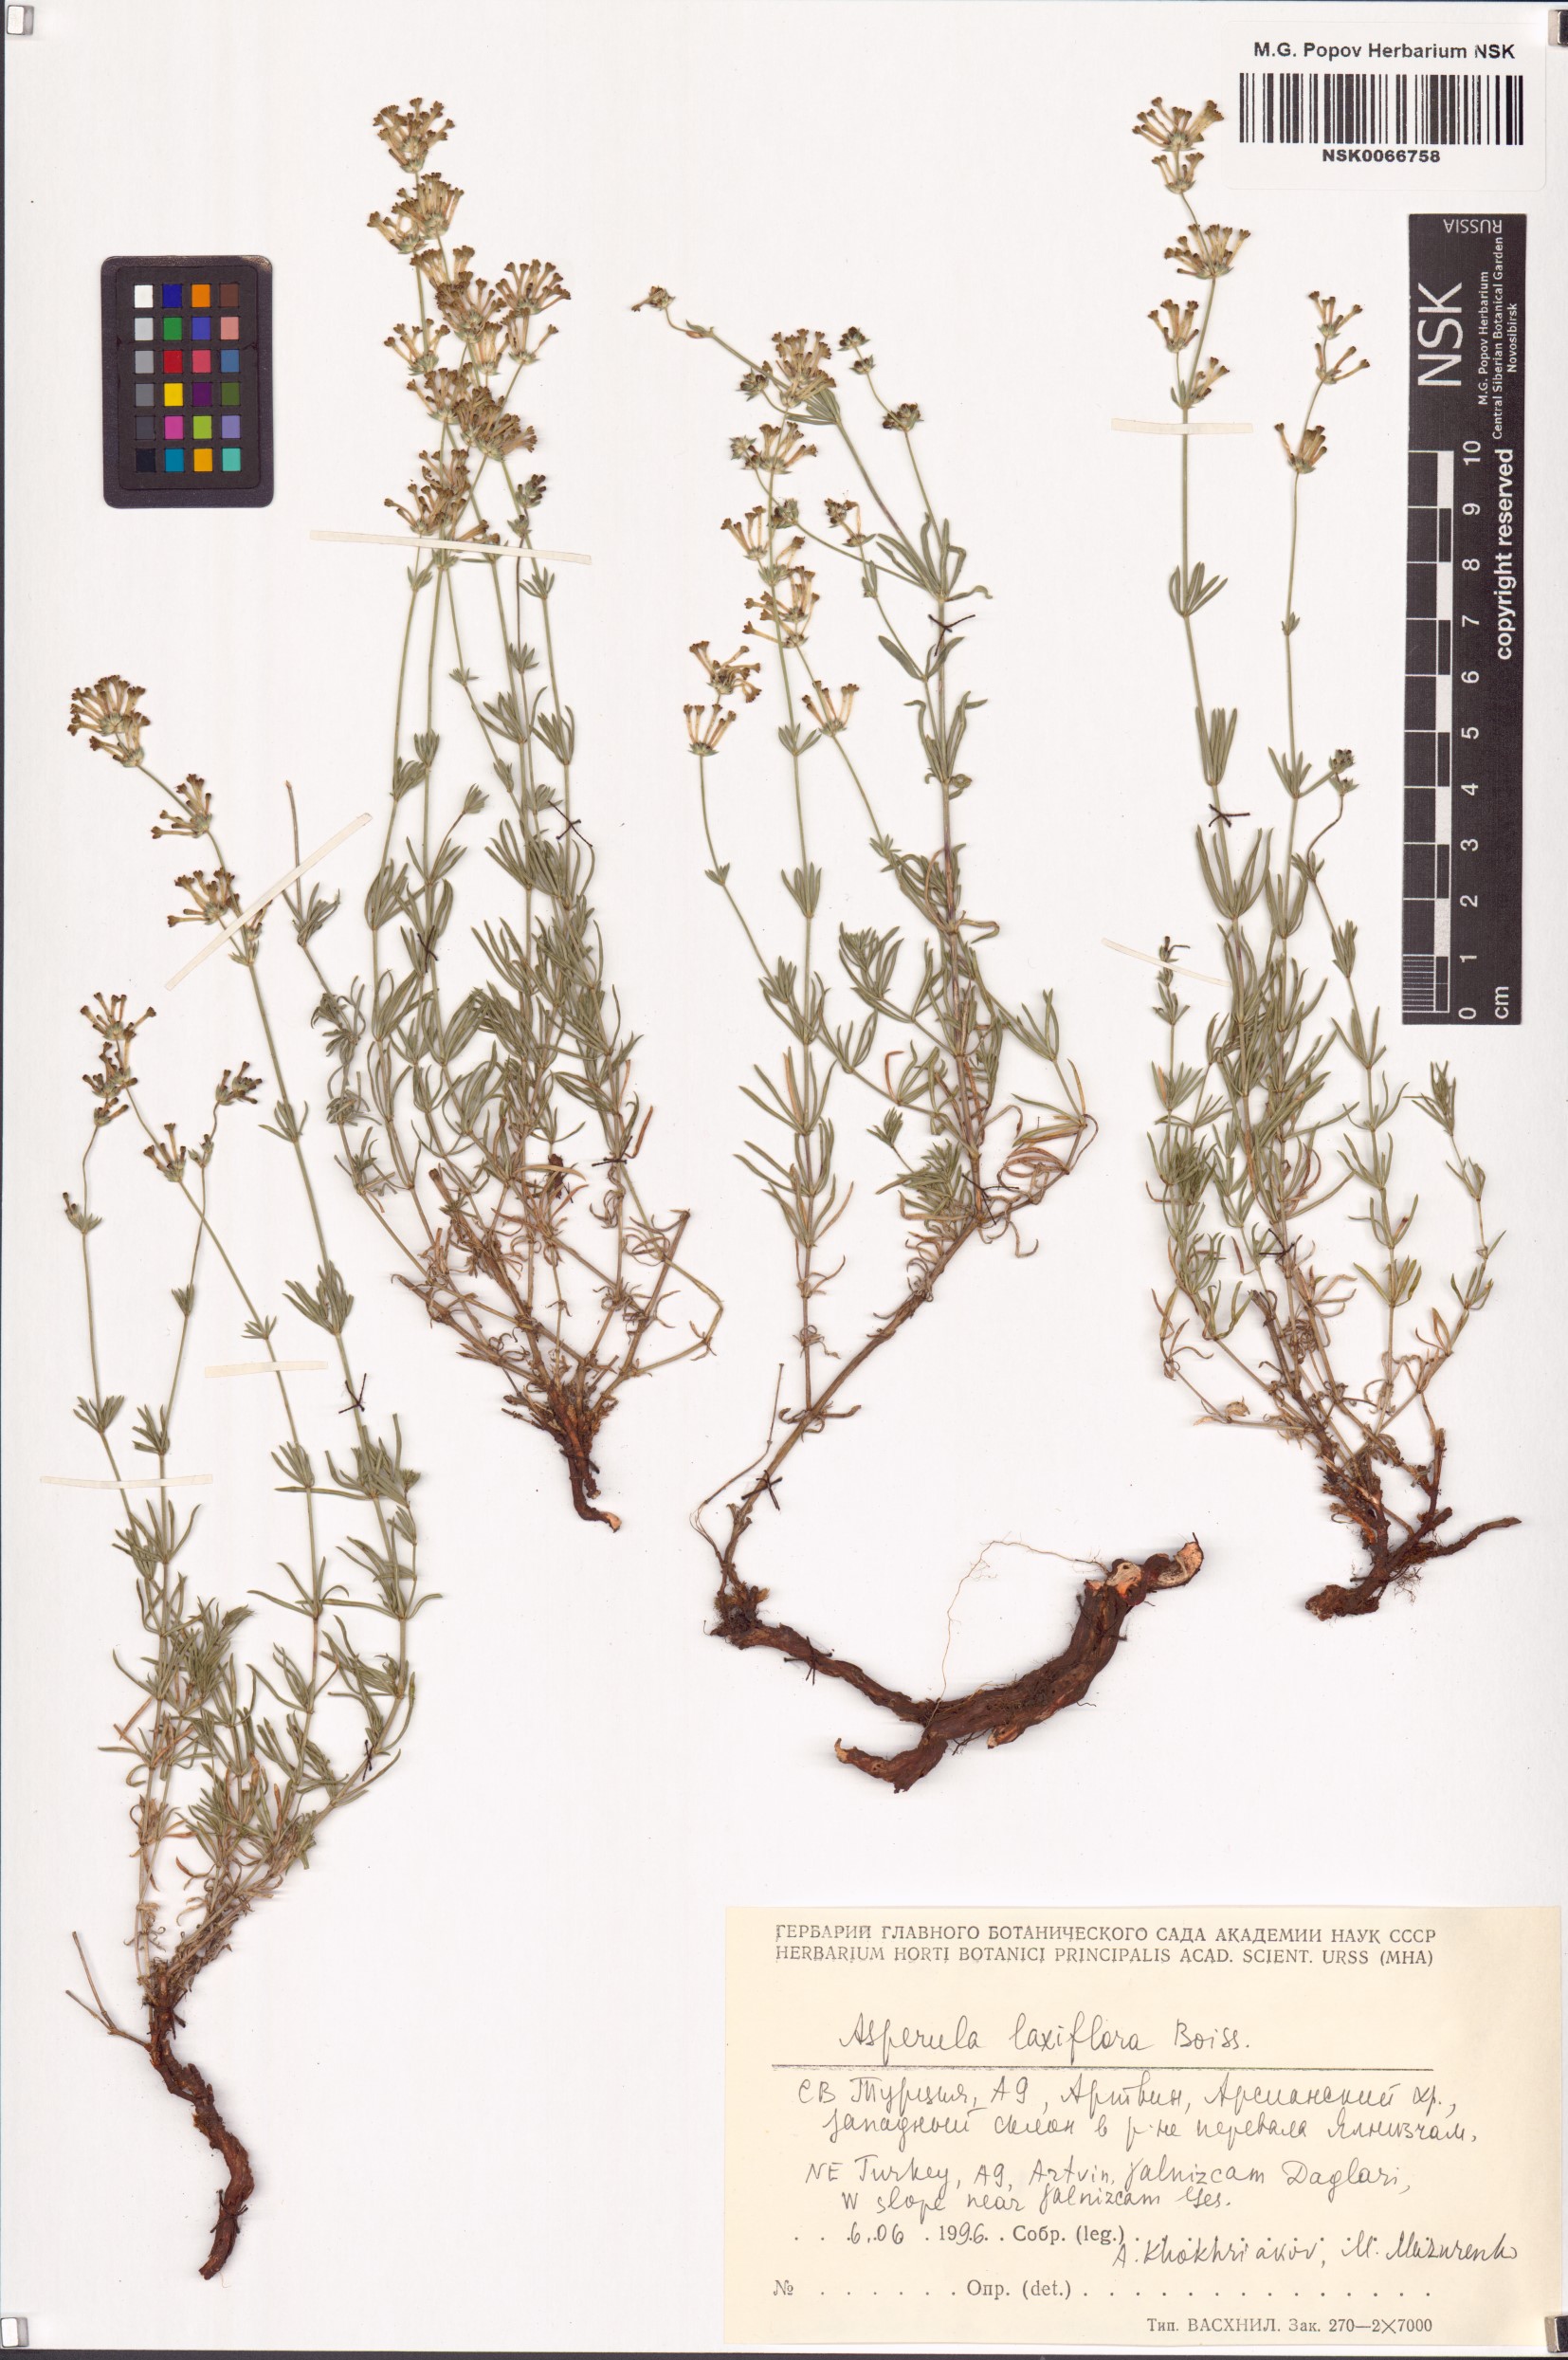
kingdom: Plantae
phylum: Tracheophyta
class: Magnoliopsida
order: Gentianales
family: Rubiaceae
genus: Asperula
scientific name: Asperula prostrata
